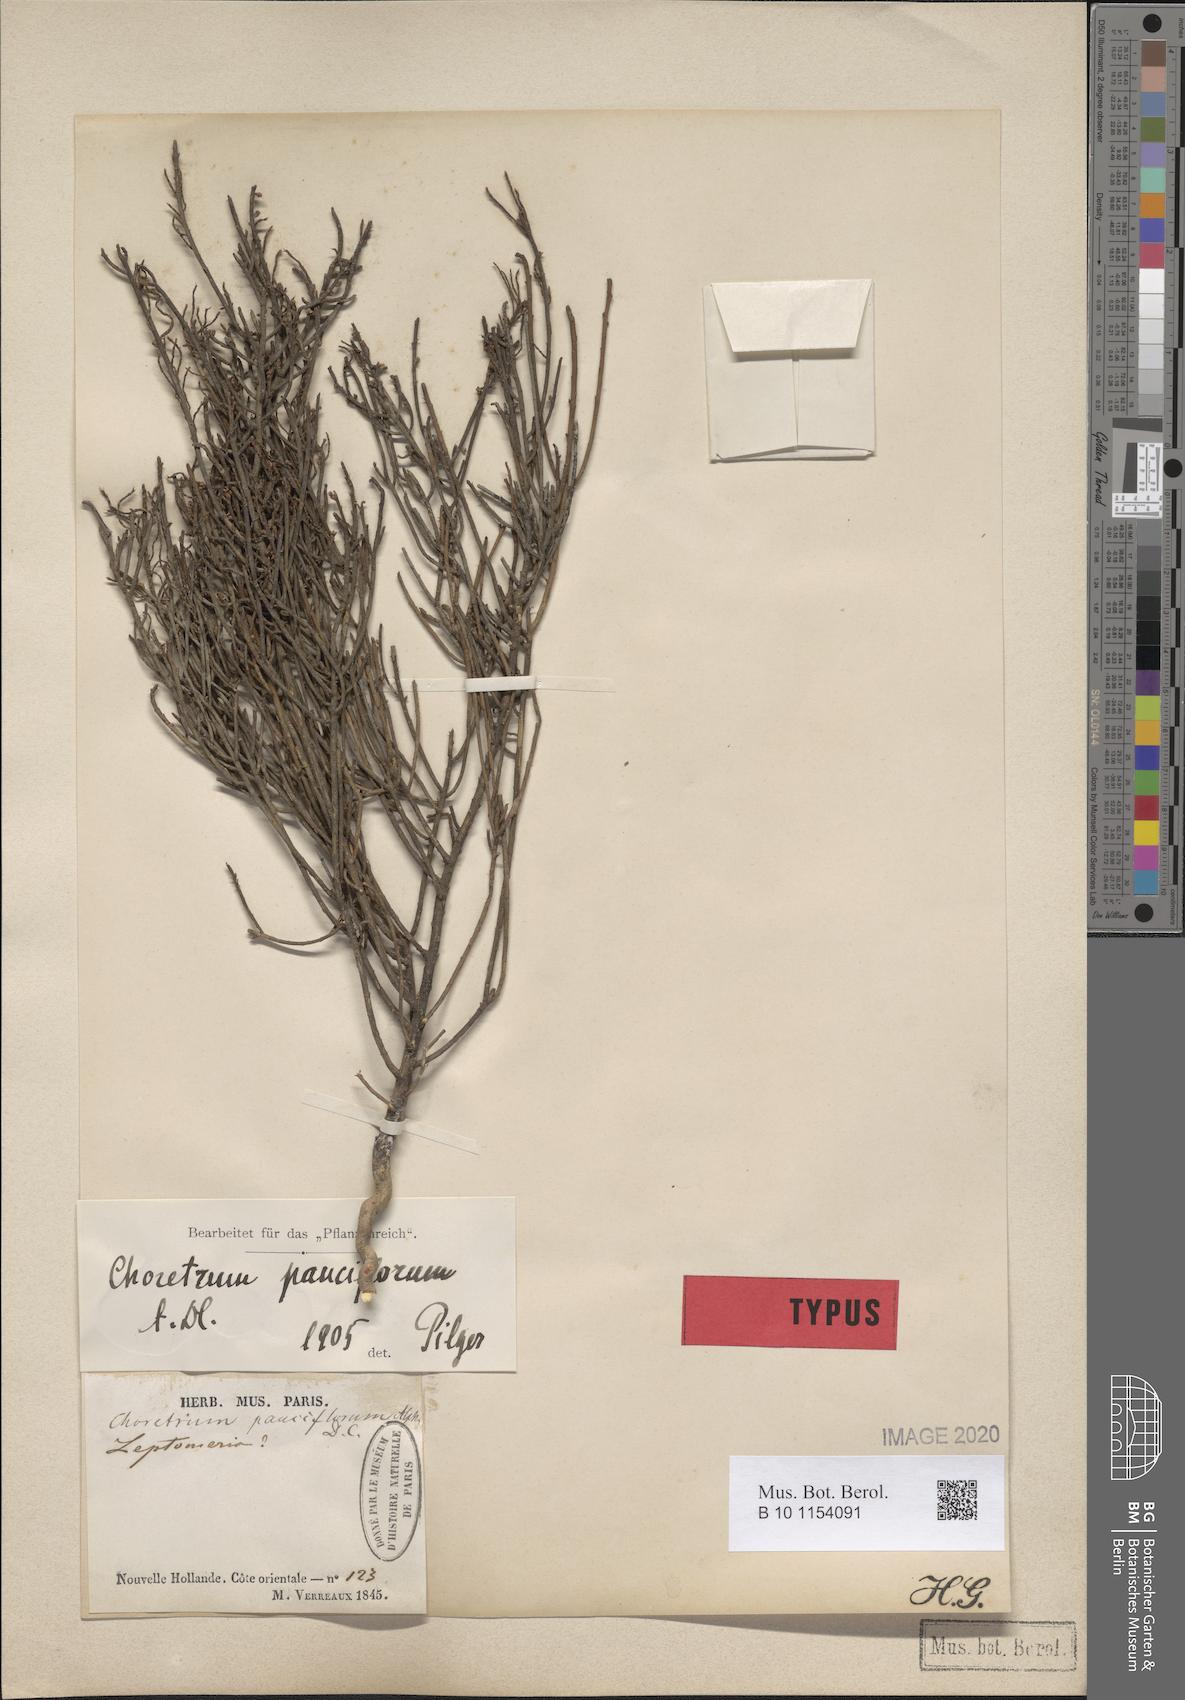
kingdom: Plantae
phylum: Tracheophyta
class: Magnoliopsida
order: Santalales
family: Amphorogynaceae
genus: Choretrum
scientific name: Choretrum pauciflorum
